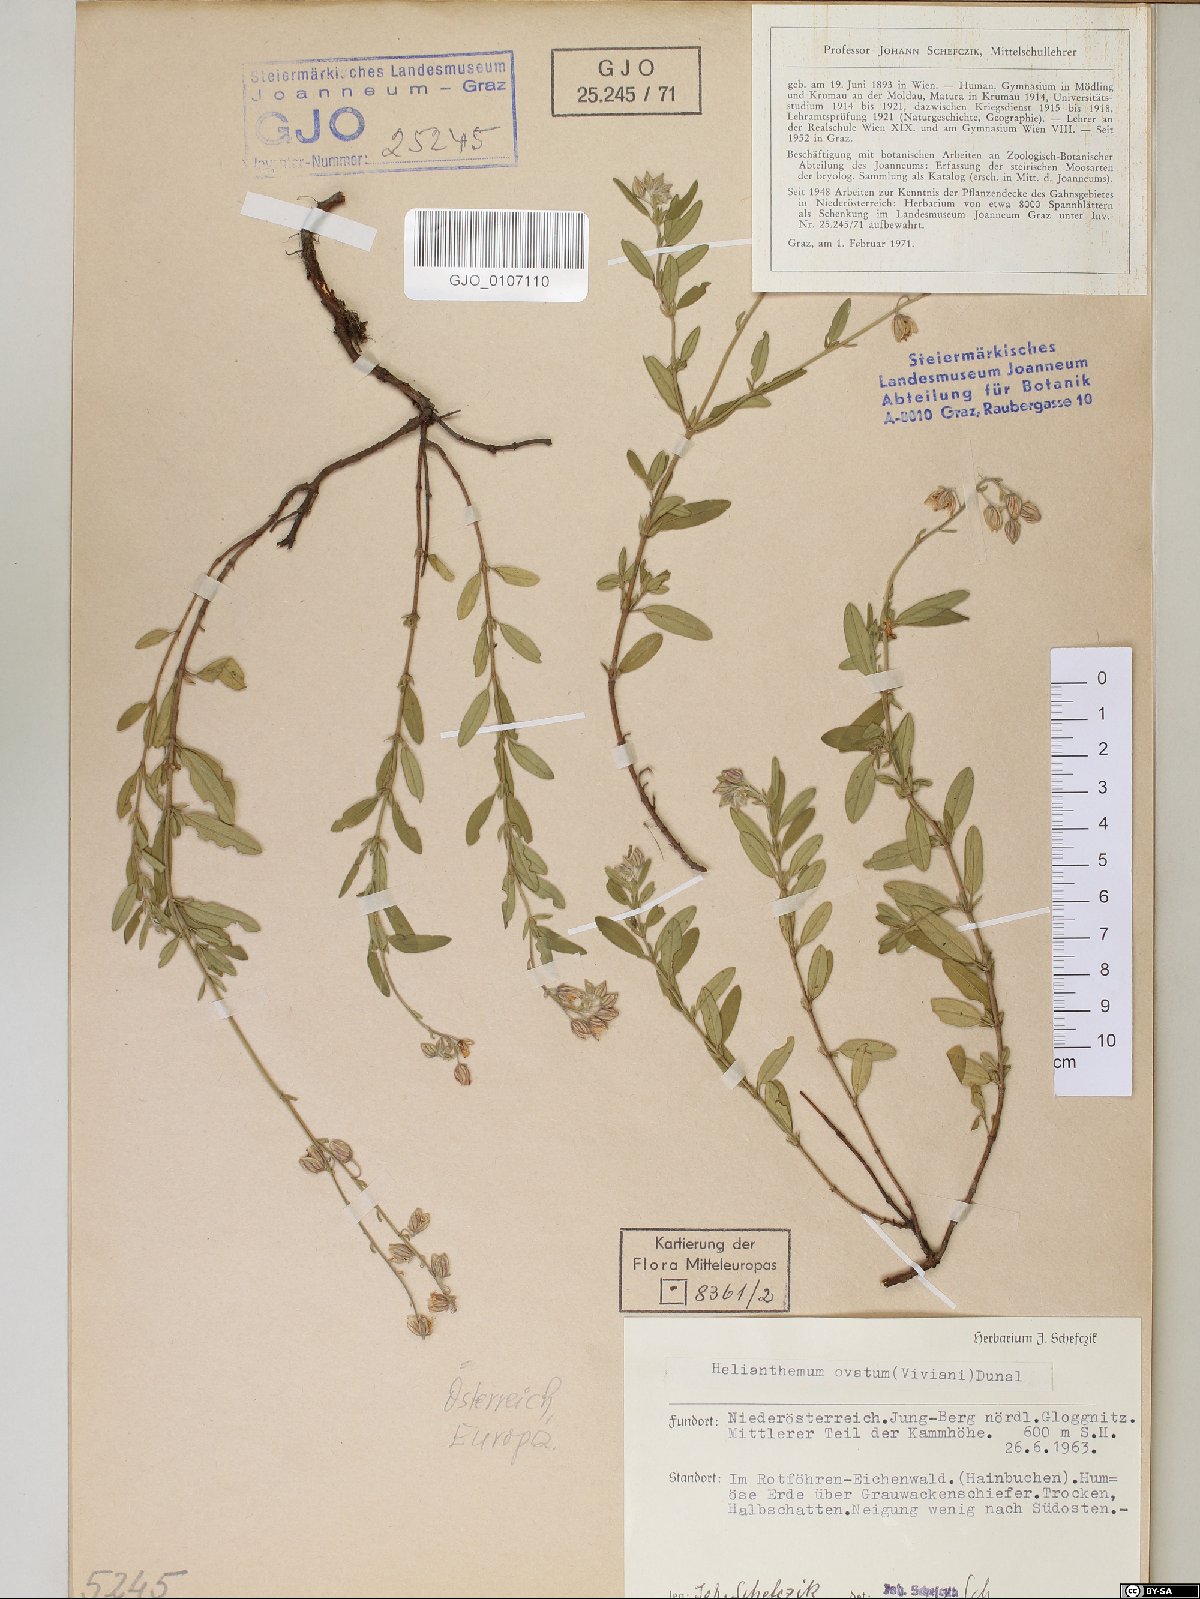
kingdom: Plantae
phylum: Tracheophyta
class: Magnoliopsida
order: Malvales
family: Cistaceae
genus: Helianthemum
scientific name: Helianthemum nummularium
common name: Common rock-rose
